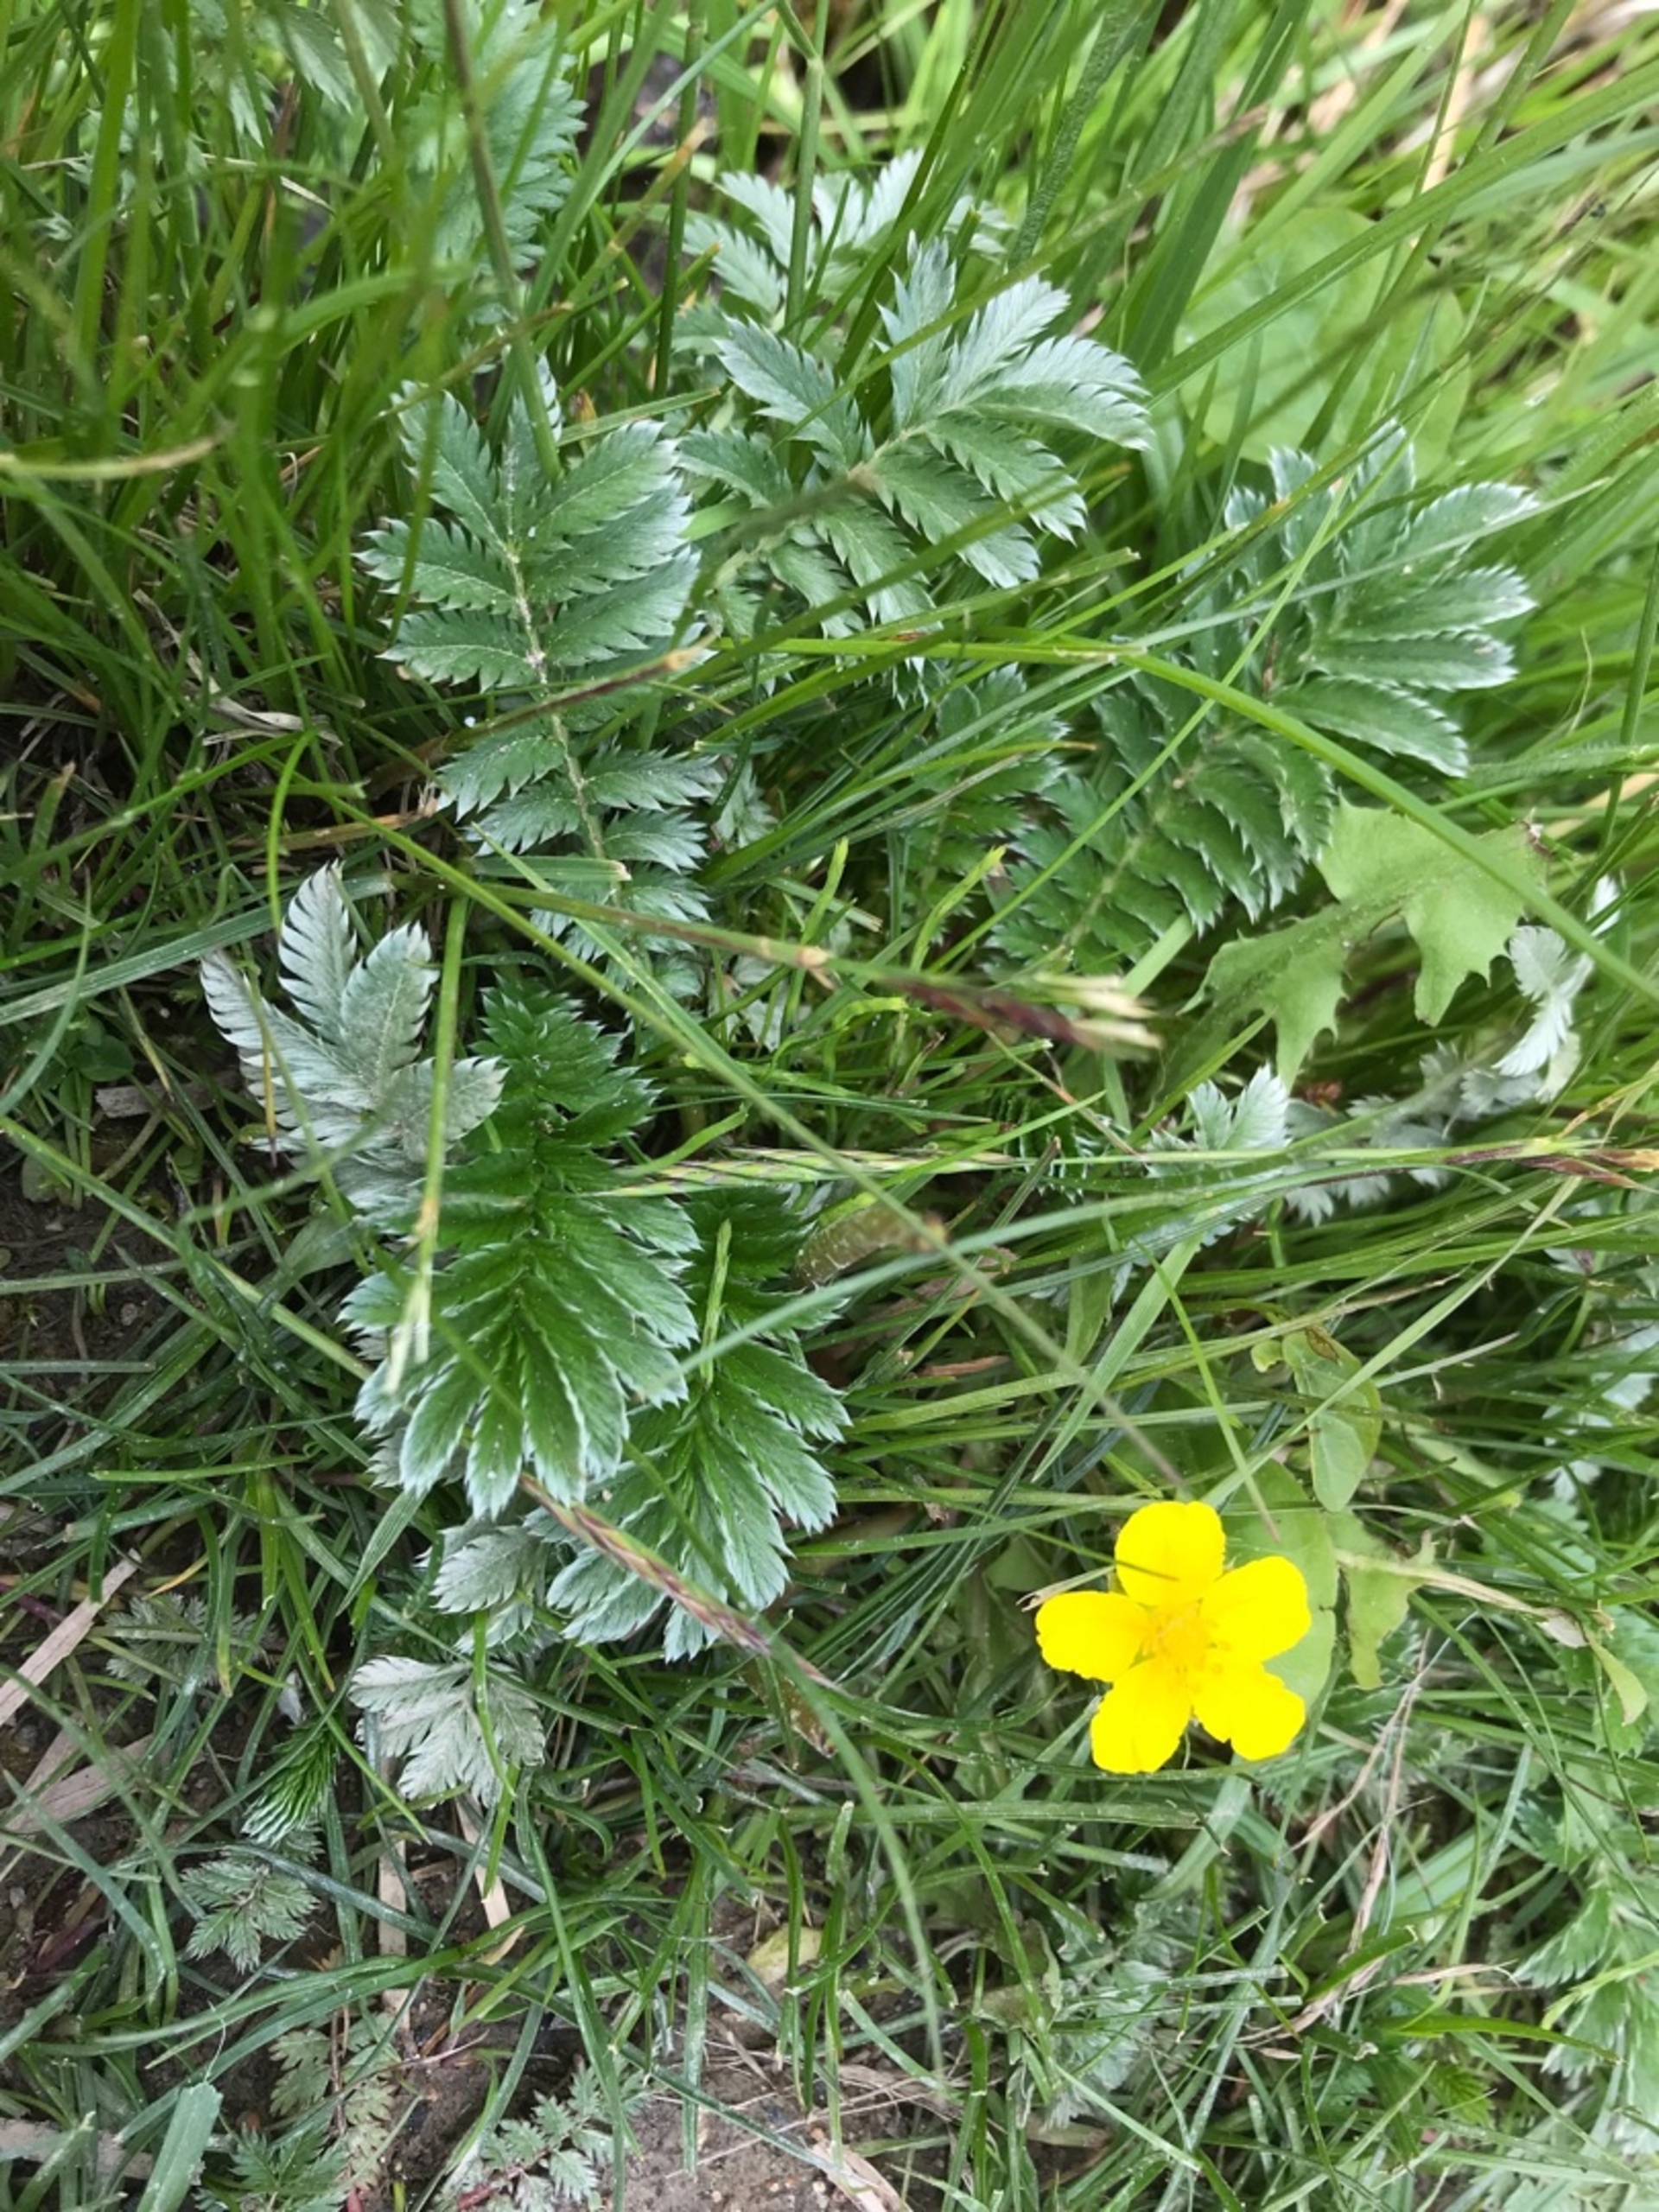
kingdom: Plantae
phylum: Tracheophyta
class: Magnoliopsida
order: Rosales
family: Rosaceae
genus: Argentina
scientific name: Argentina anserina
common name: Gåsepotentil
